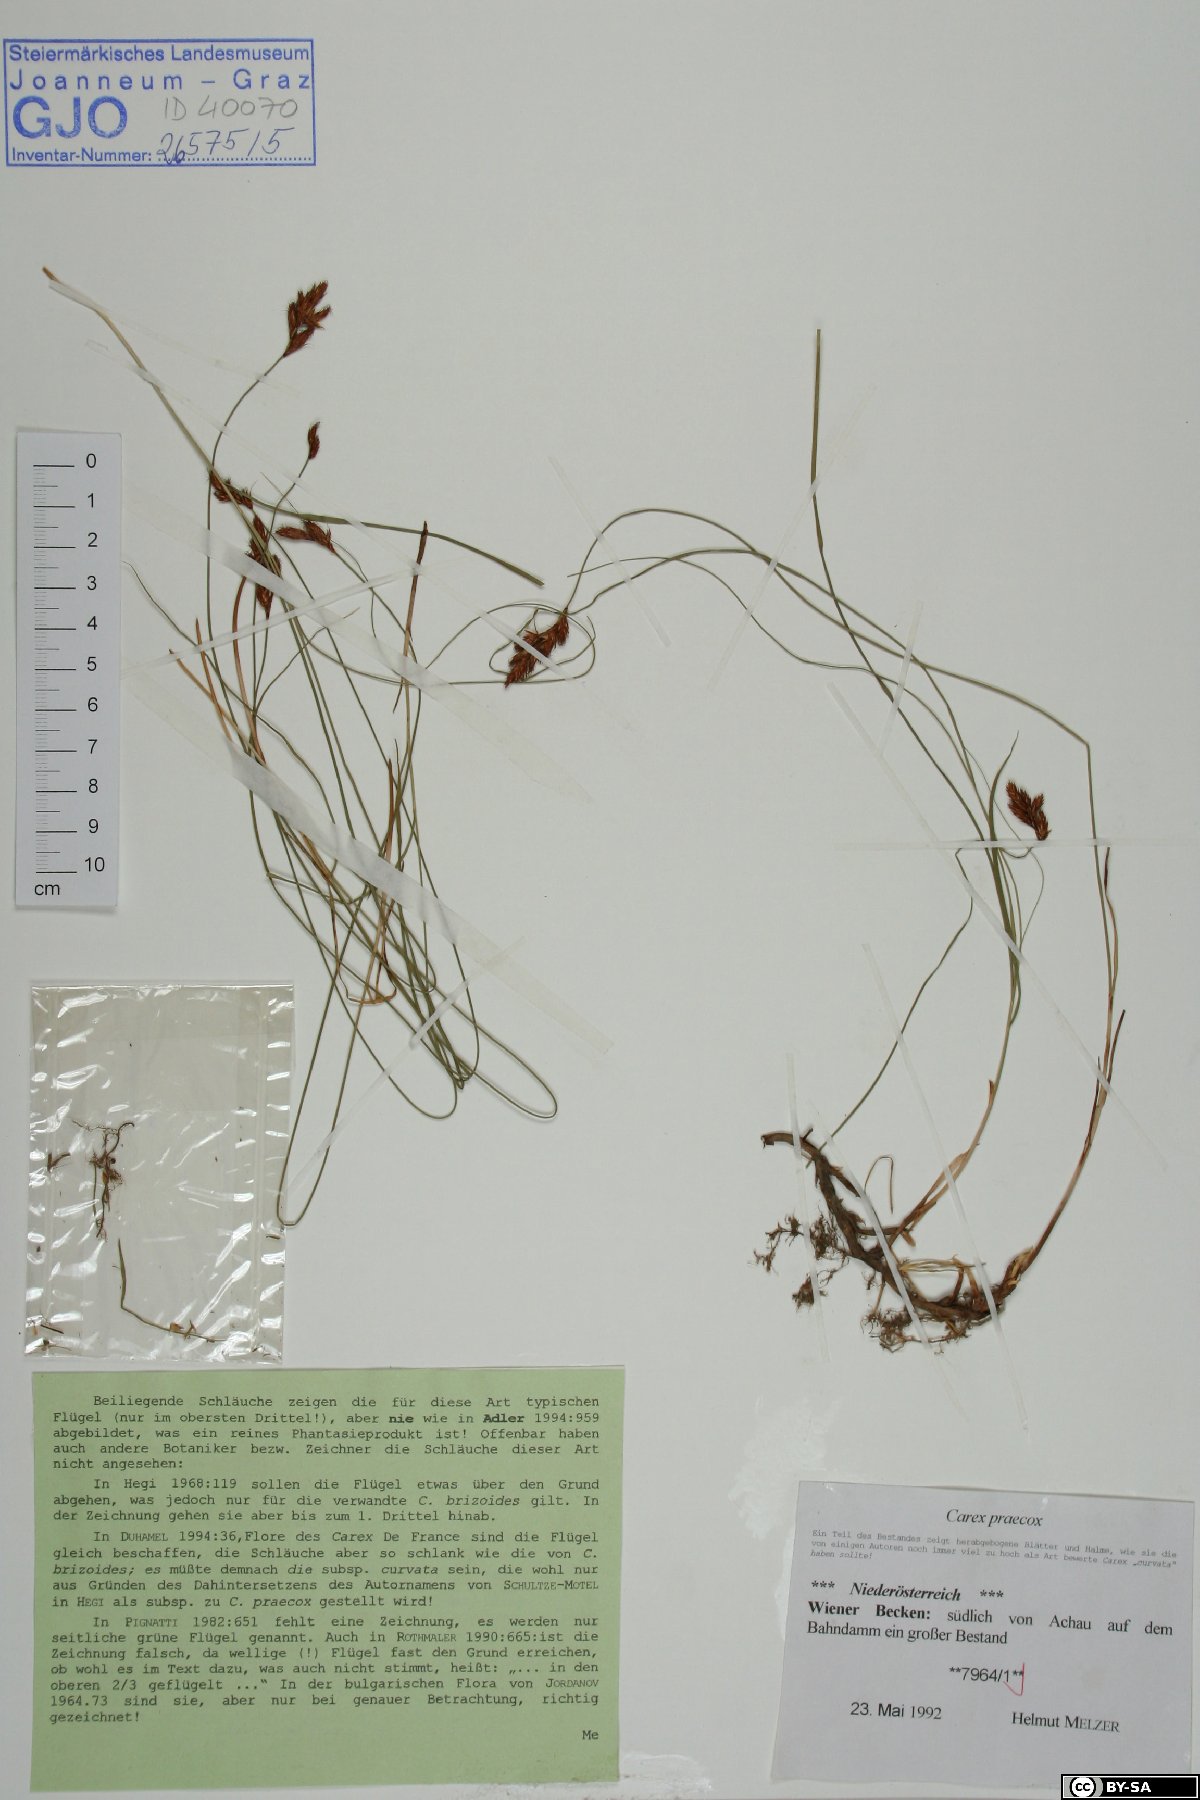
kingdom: Plantae
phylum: Tracheophyta
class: Liliopsida
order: Poales
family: Cyperaceae
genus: Carex
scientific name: Carex praecox
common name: Early sedge
